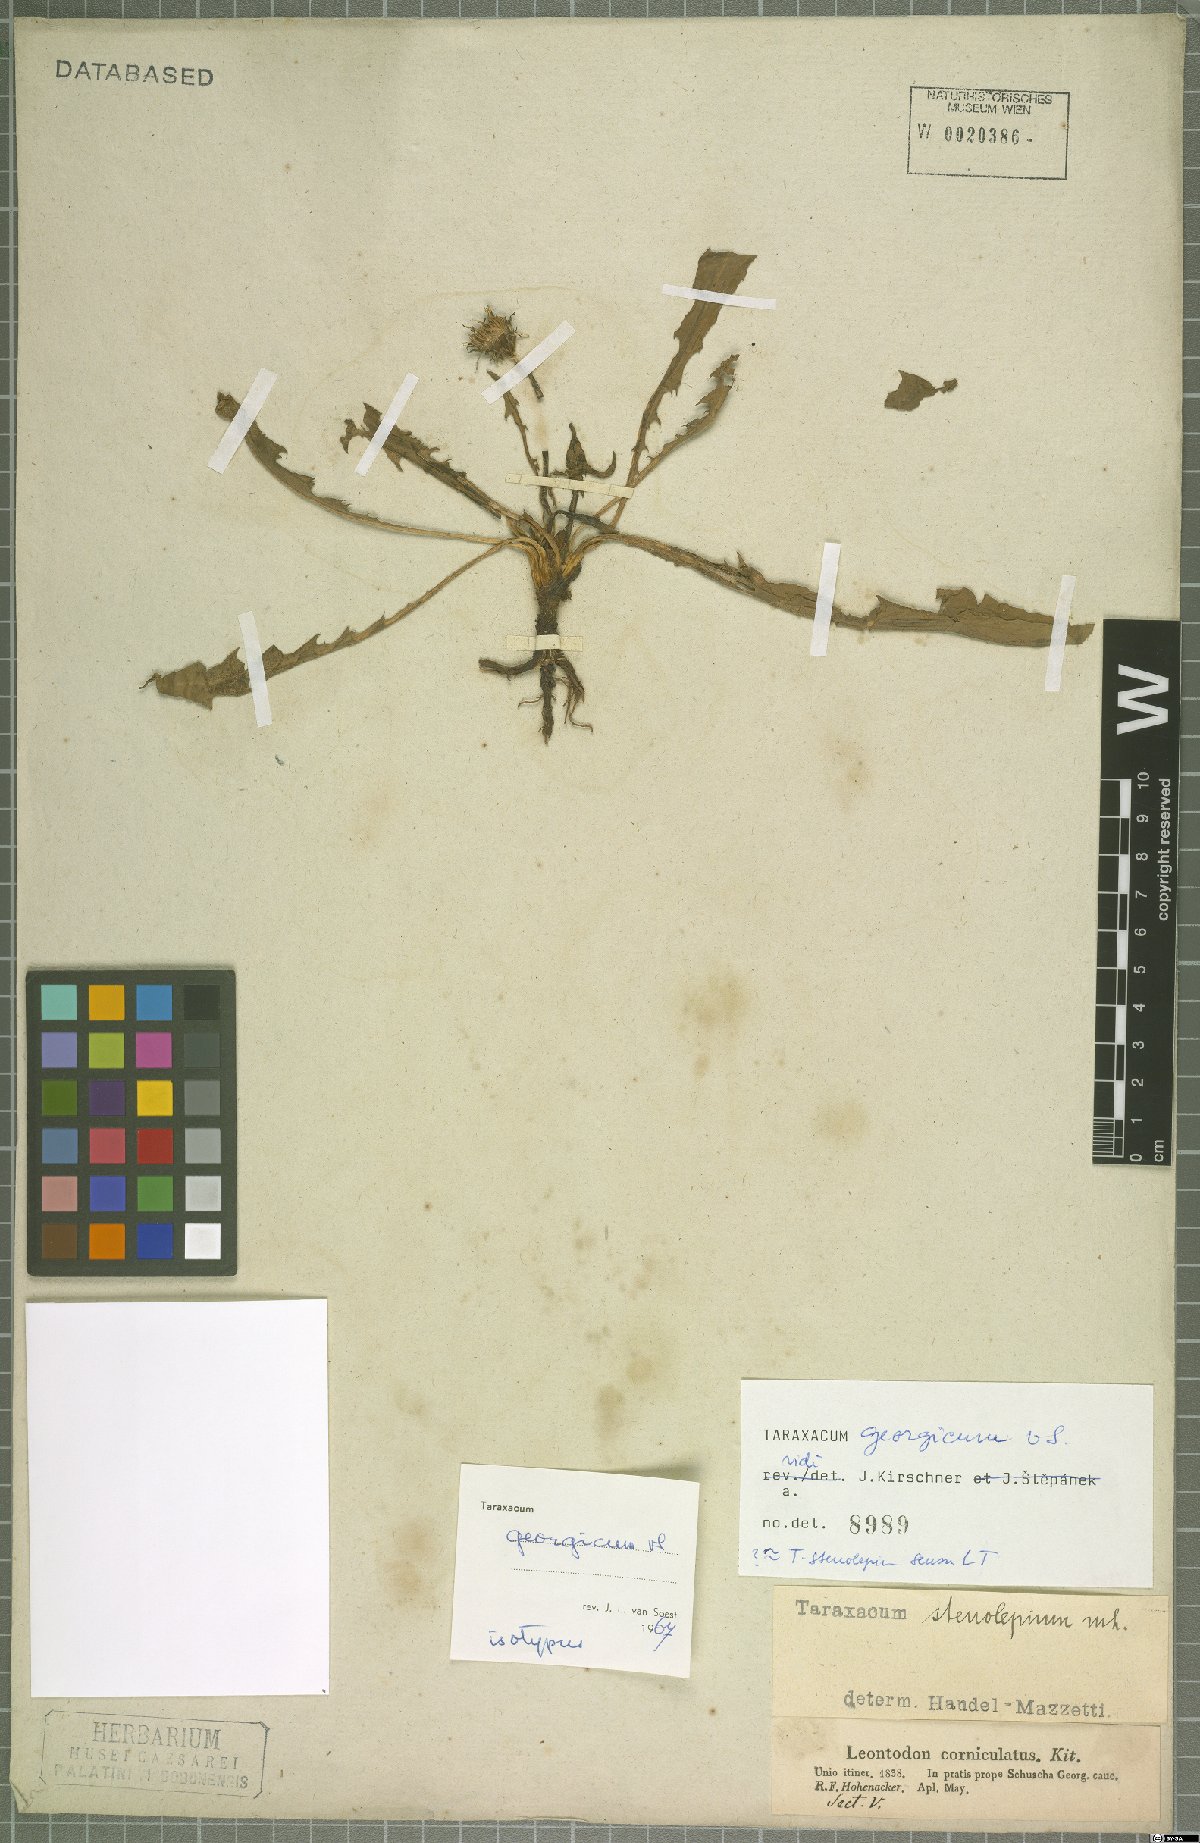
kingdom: Plantae
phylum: Tracheophyta
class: Magnoliopsida
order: Asterales
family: Asteraceae
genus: Taraxacum
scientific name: Taraxacum stenocephalum
